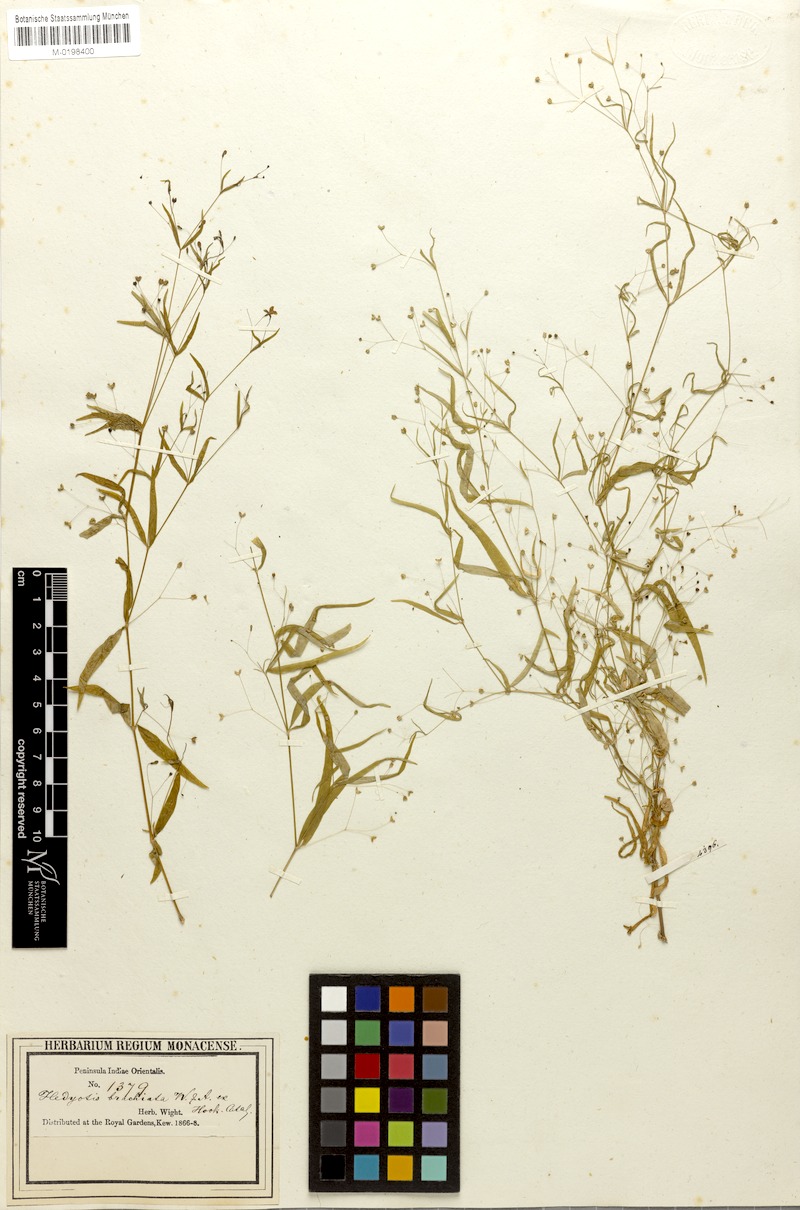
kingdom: Plantae
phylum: Tracheophyta
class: Magnoliopsida
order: Gentianales
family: Rubiaceae
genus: Kohautia
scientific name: Kohautia aspera
